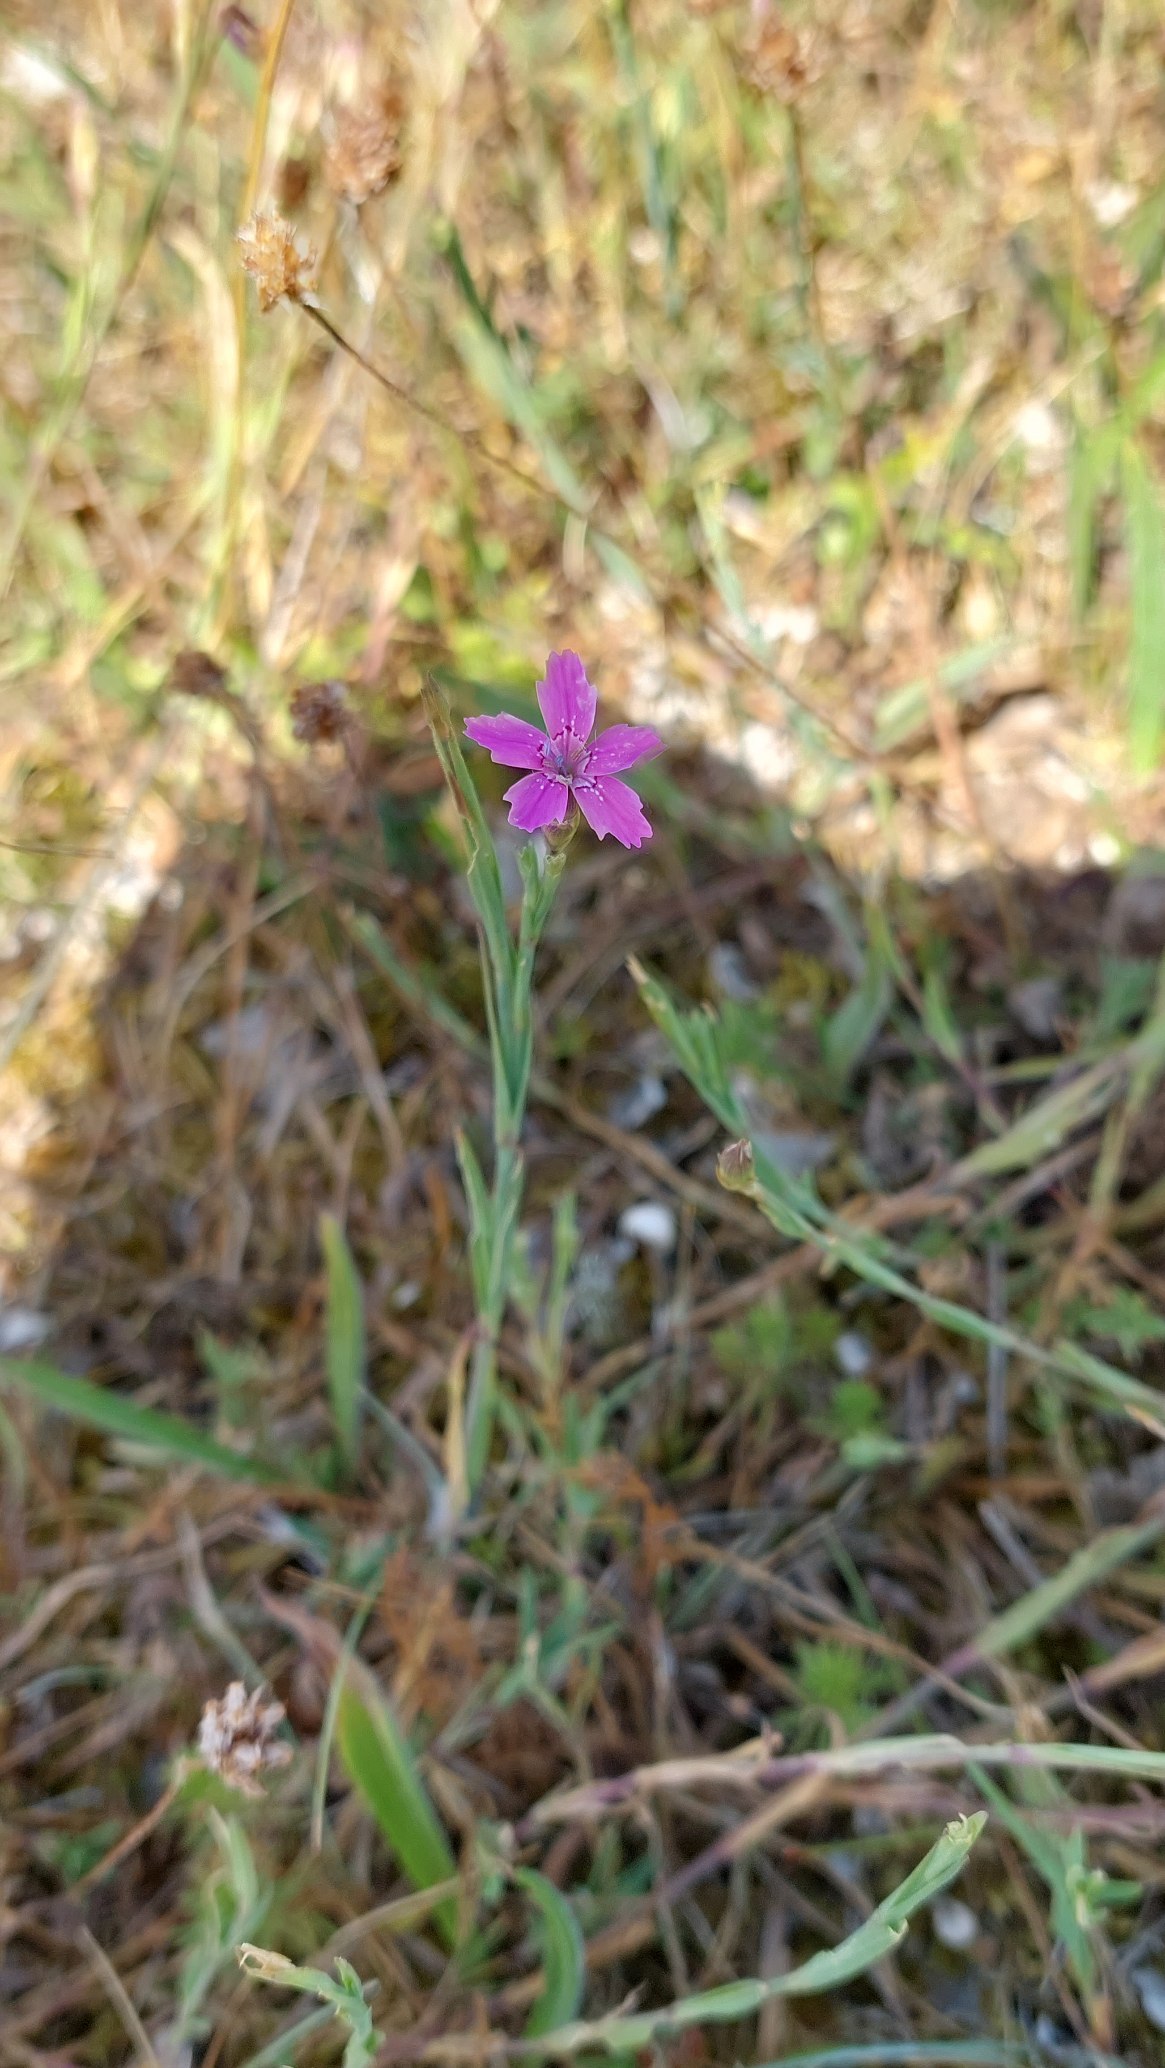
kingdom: Plantae
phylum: Tracheophyta
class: Magnoliopsida
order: Caryophyllales
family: Caryophyllaceae
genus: Dianthus
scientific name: Dianthus deltoides
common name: Bakke-nellike
